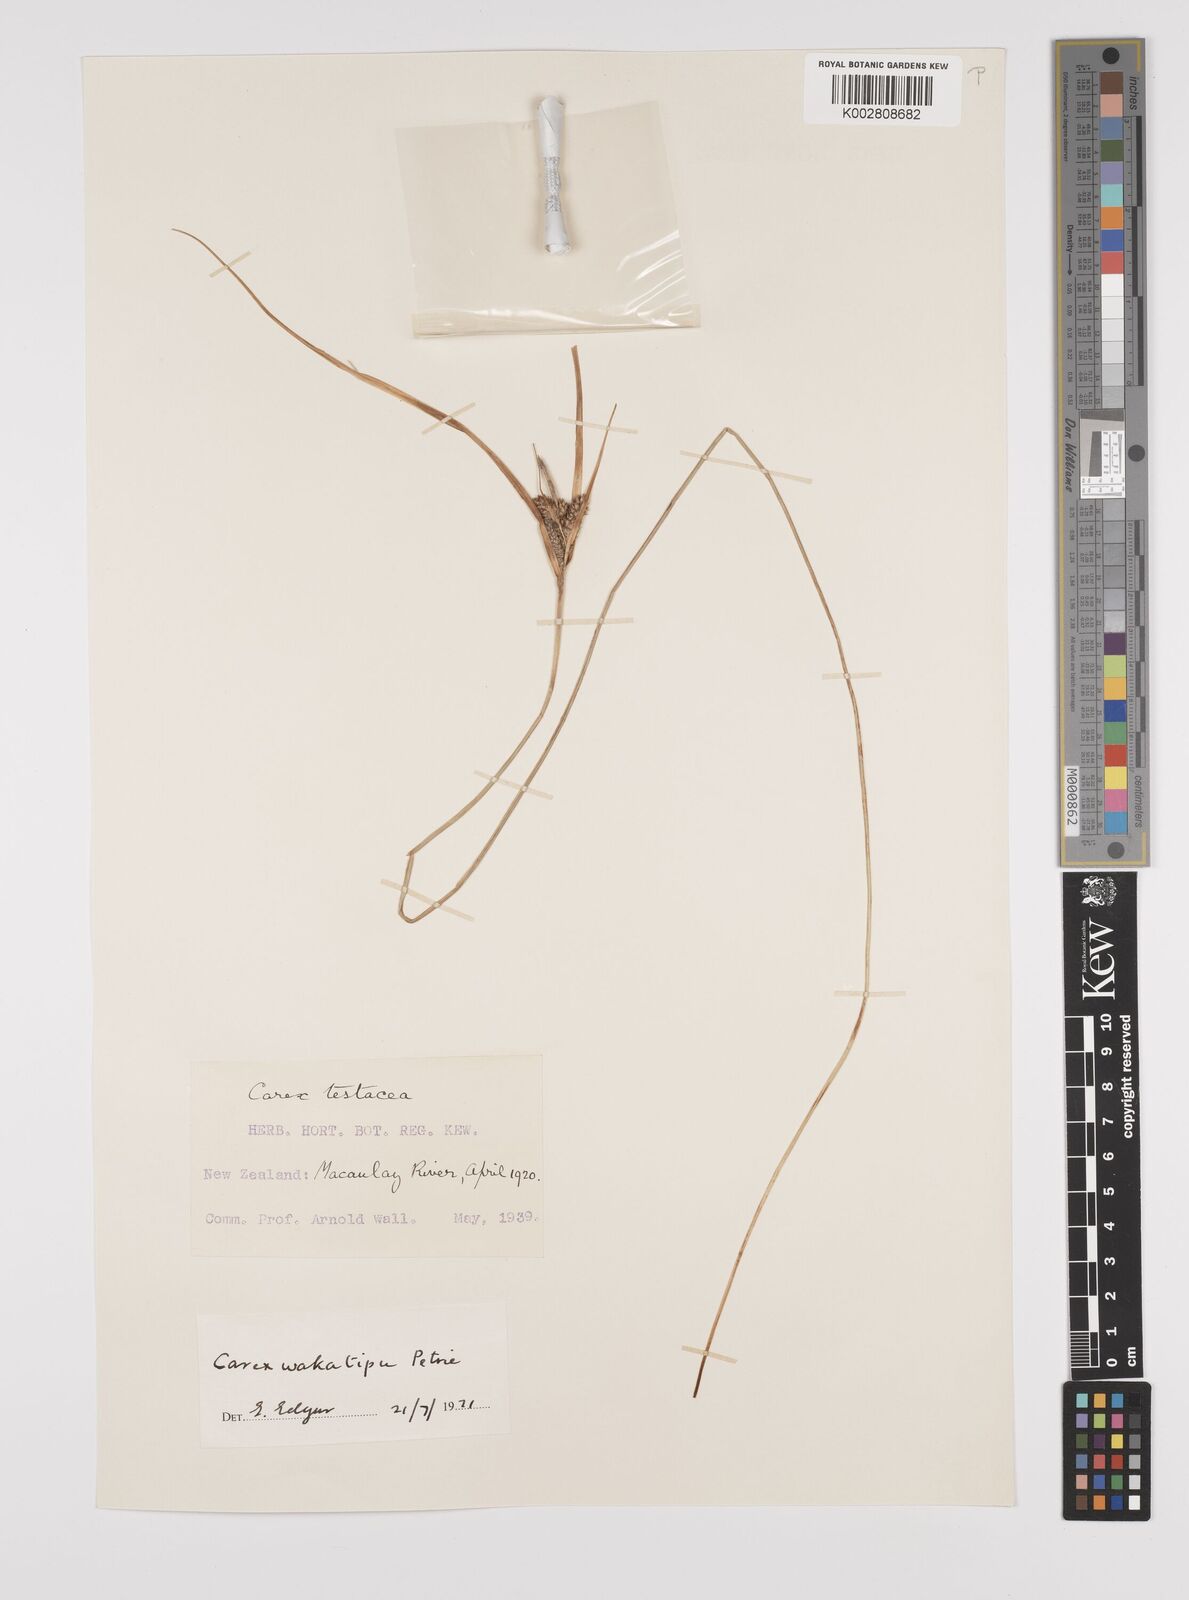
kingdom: Plantae
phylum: Tracheophyta
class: Liliopsida
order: Poales
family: Cyperaceae
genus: Carex
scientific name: Carex wakatipu
